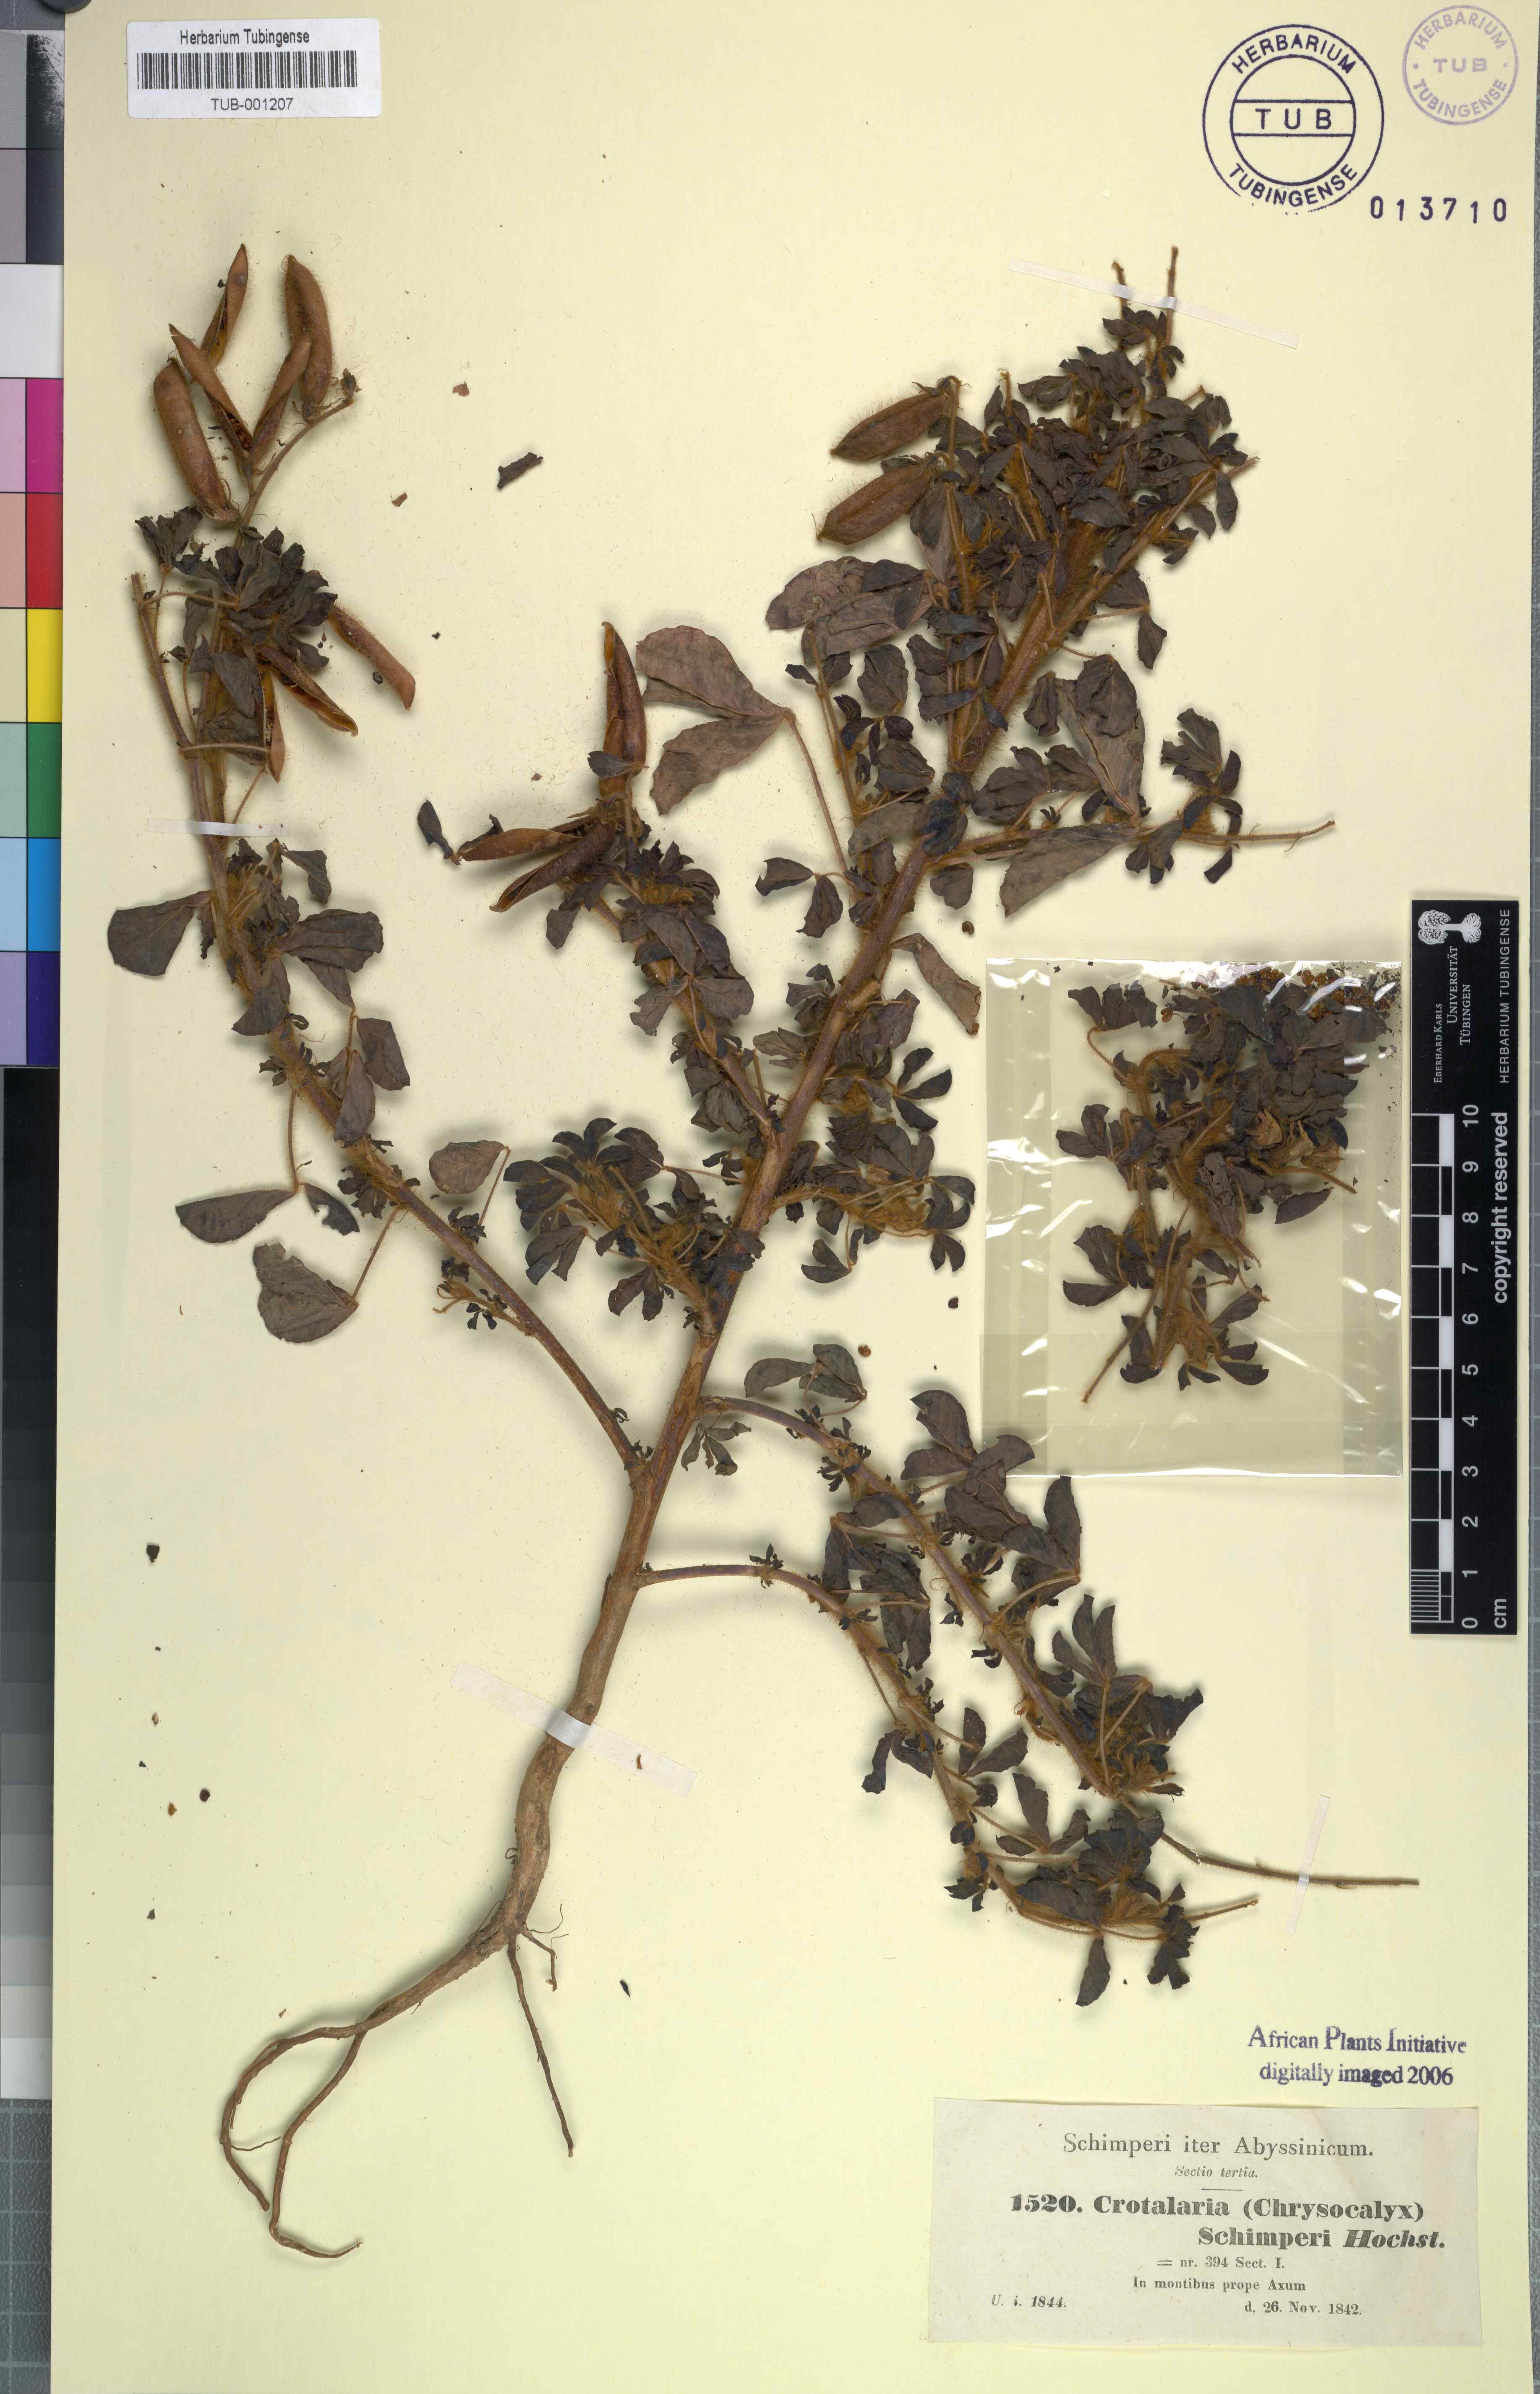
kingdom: Plantae
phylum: Tracheophyta
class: Magnoliopsida
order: Fabales
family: Fabaceae
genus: Crotalaria
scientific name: Crotalaria incana
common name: Shakeshake
